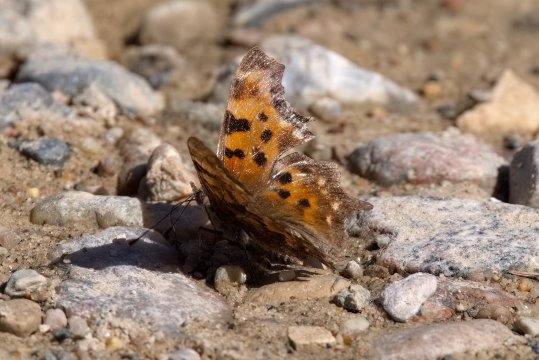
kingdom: Animalia
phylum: Arthropoda
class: Insecta
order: Lepidoptera
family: Nymphalidae
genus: Polygonia
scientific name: Polygonia faunus
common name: Green Comma
